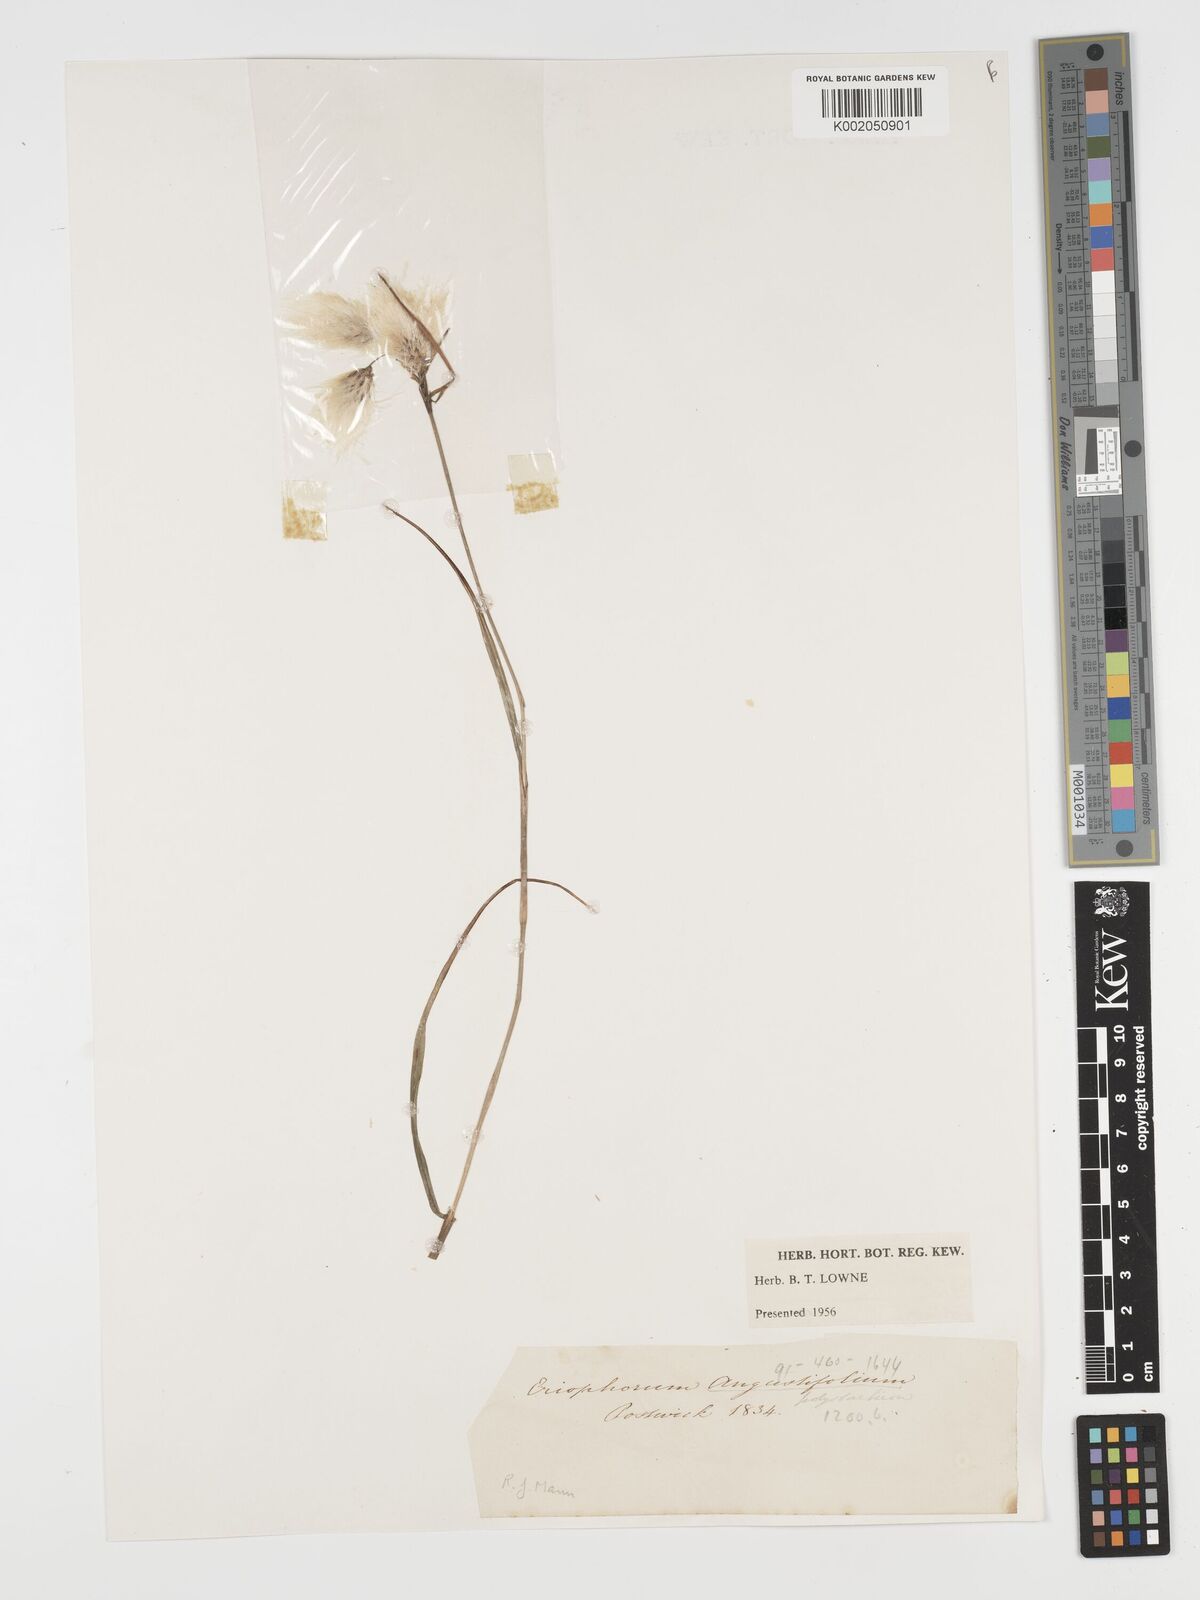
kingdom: Plantae
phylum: Tracheophyta
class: Liliopsida
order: Poales
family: Cyperaceae
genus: Eriophorum
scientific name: Eriophorum angustifolium
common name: Common cottongrass
